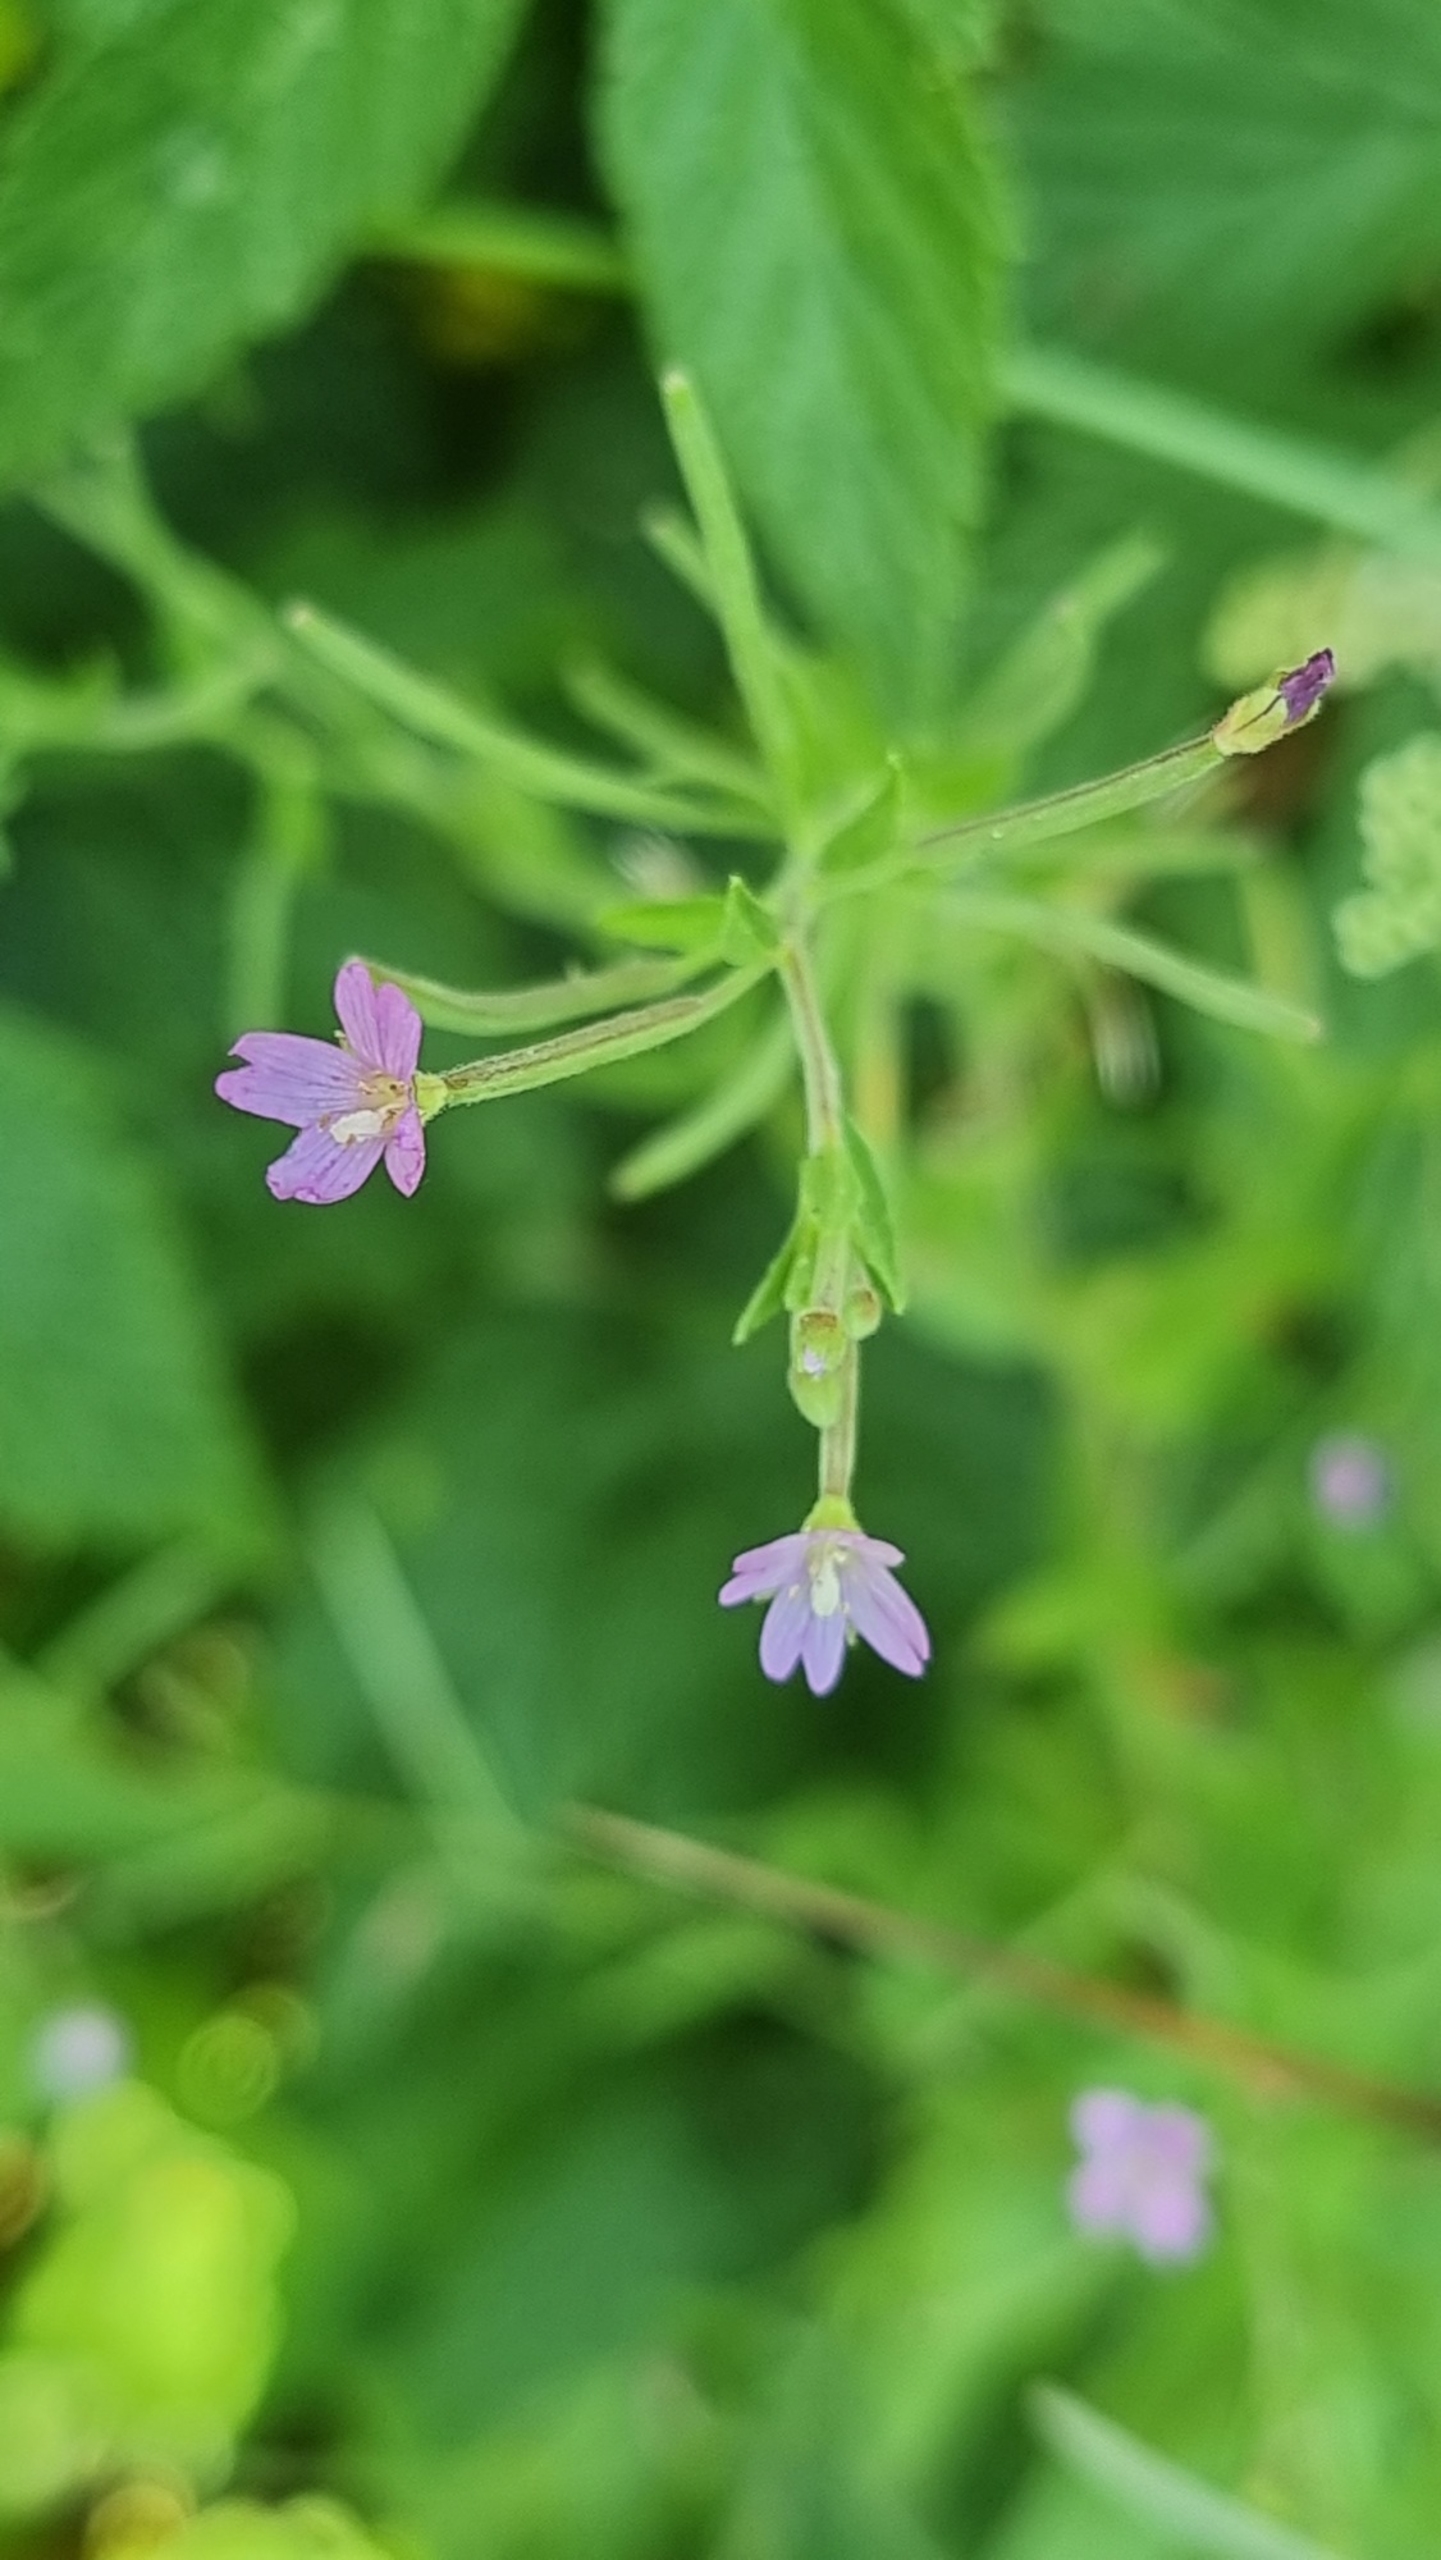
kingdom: Plantae
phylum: Tracheophyta
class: Magnoliopsida
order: Myrtales
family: Onagraceae
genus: Epilobium
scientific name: Epilobium ciliatum
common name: Kirtlet dueurt
